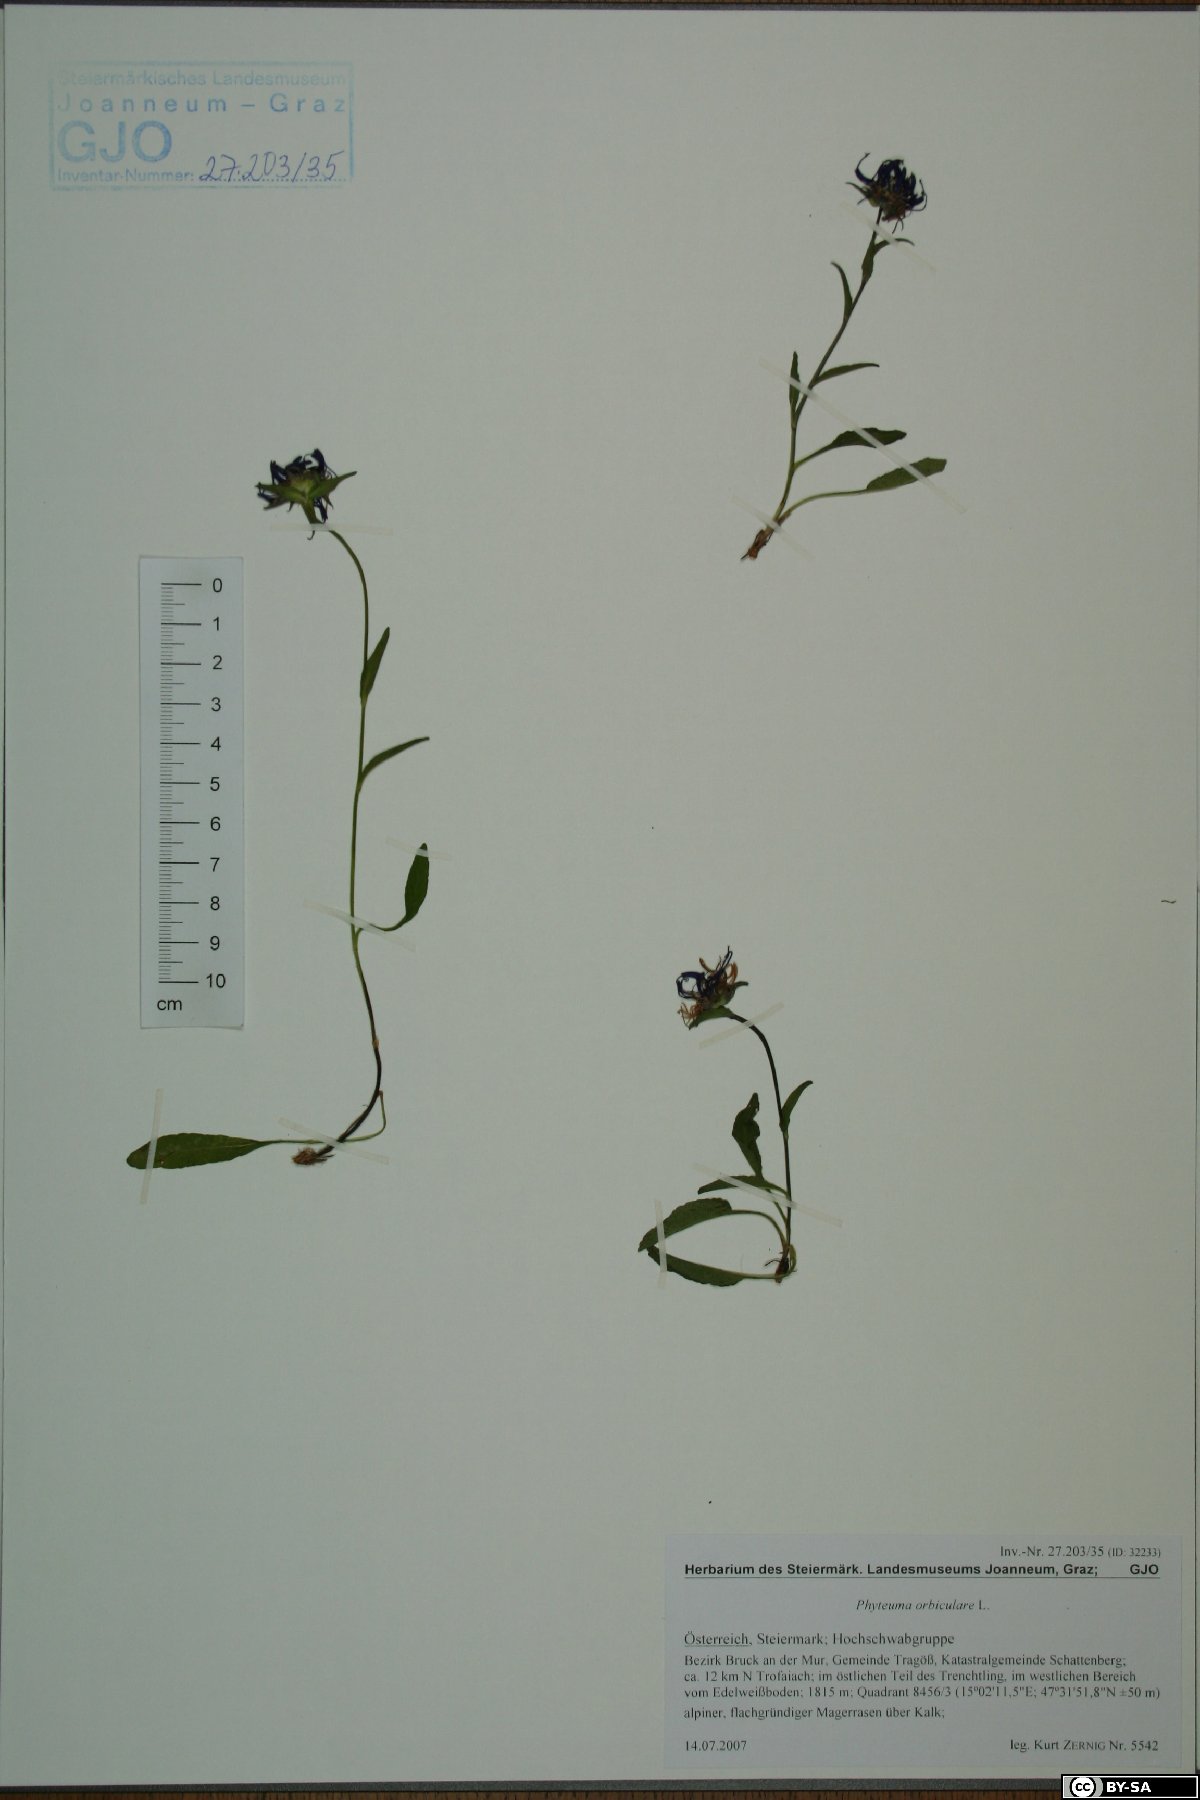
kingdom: Plantae
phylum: Tracheophyta
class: Magnoliopsida
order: Asterales
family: Campanulaceae
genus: Phyteuma
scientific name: Phyteuma orbiculare
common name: Round-headed rampion
